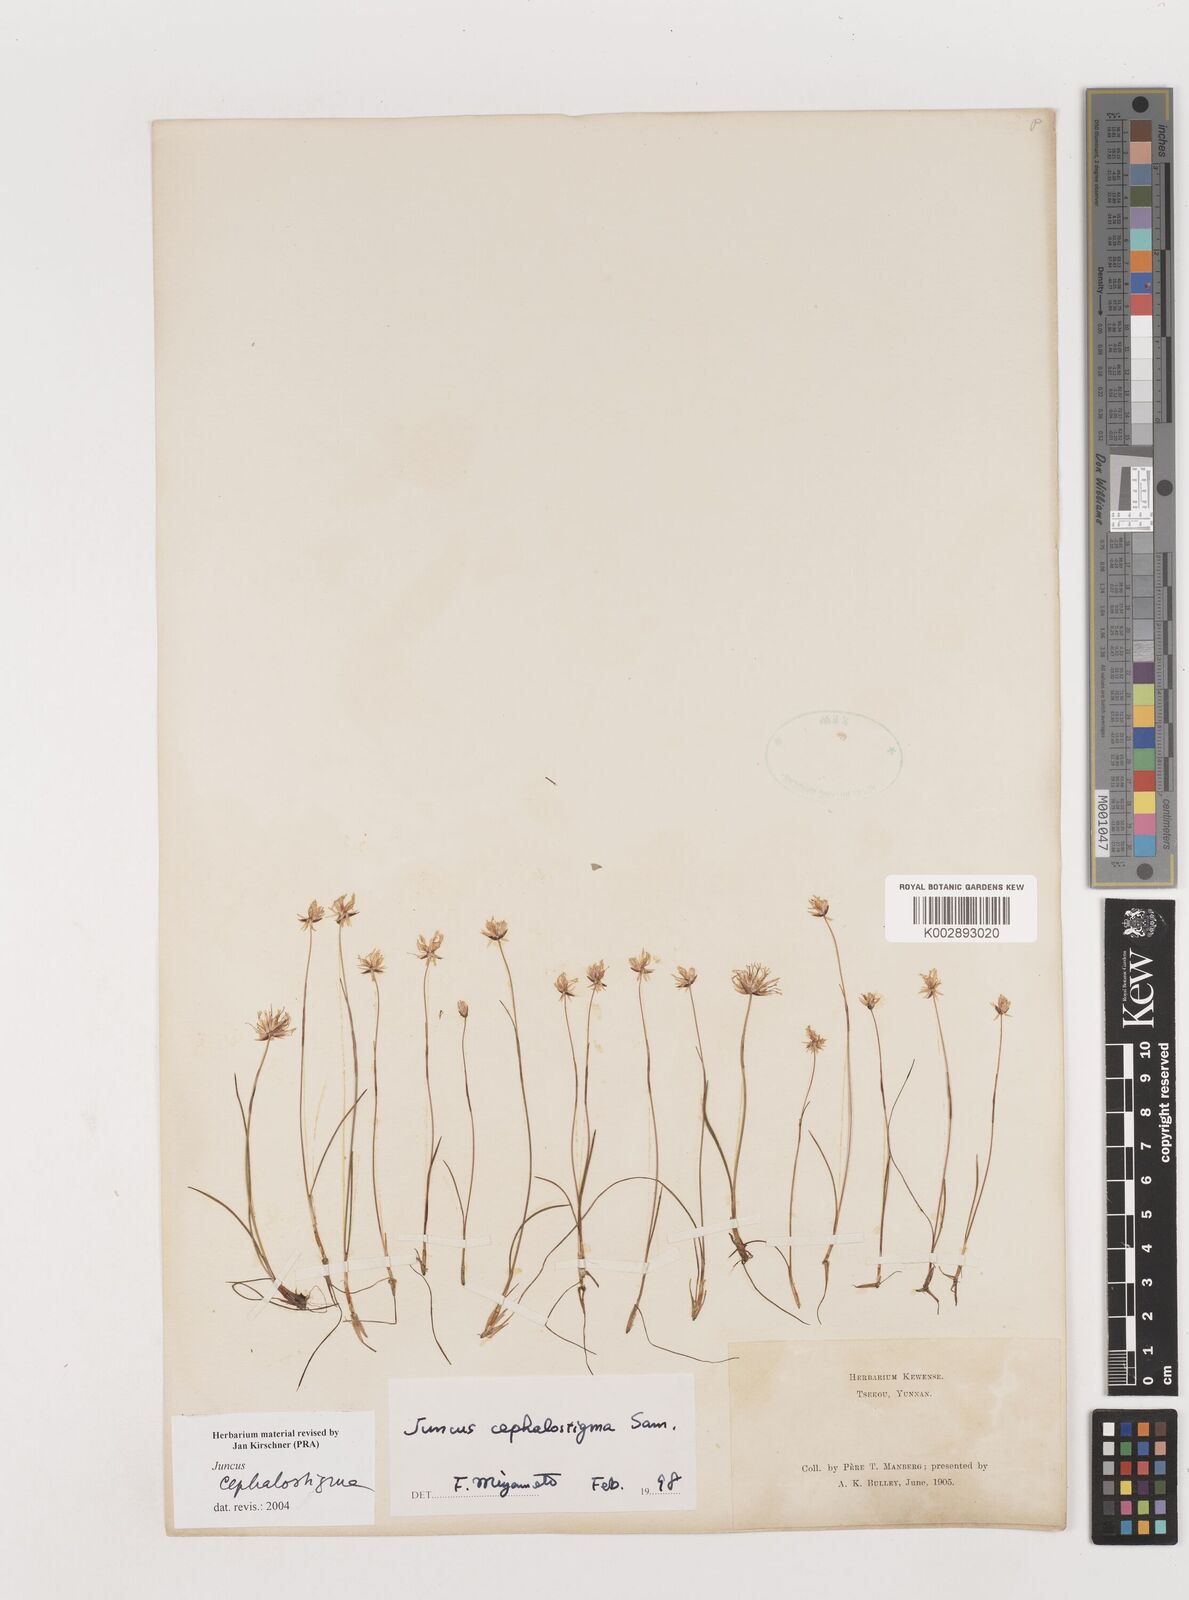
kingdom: Plantae
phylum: Tracheophyta
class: Liliopsida
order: Poales
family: Juncaceae
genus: Juncus
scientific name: Juncus cephalostigma
